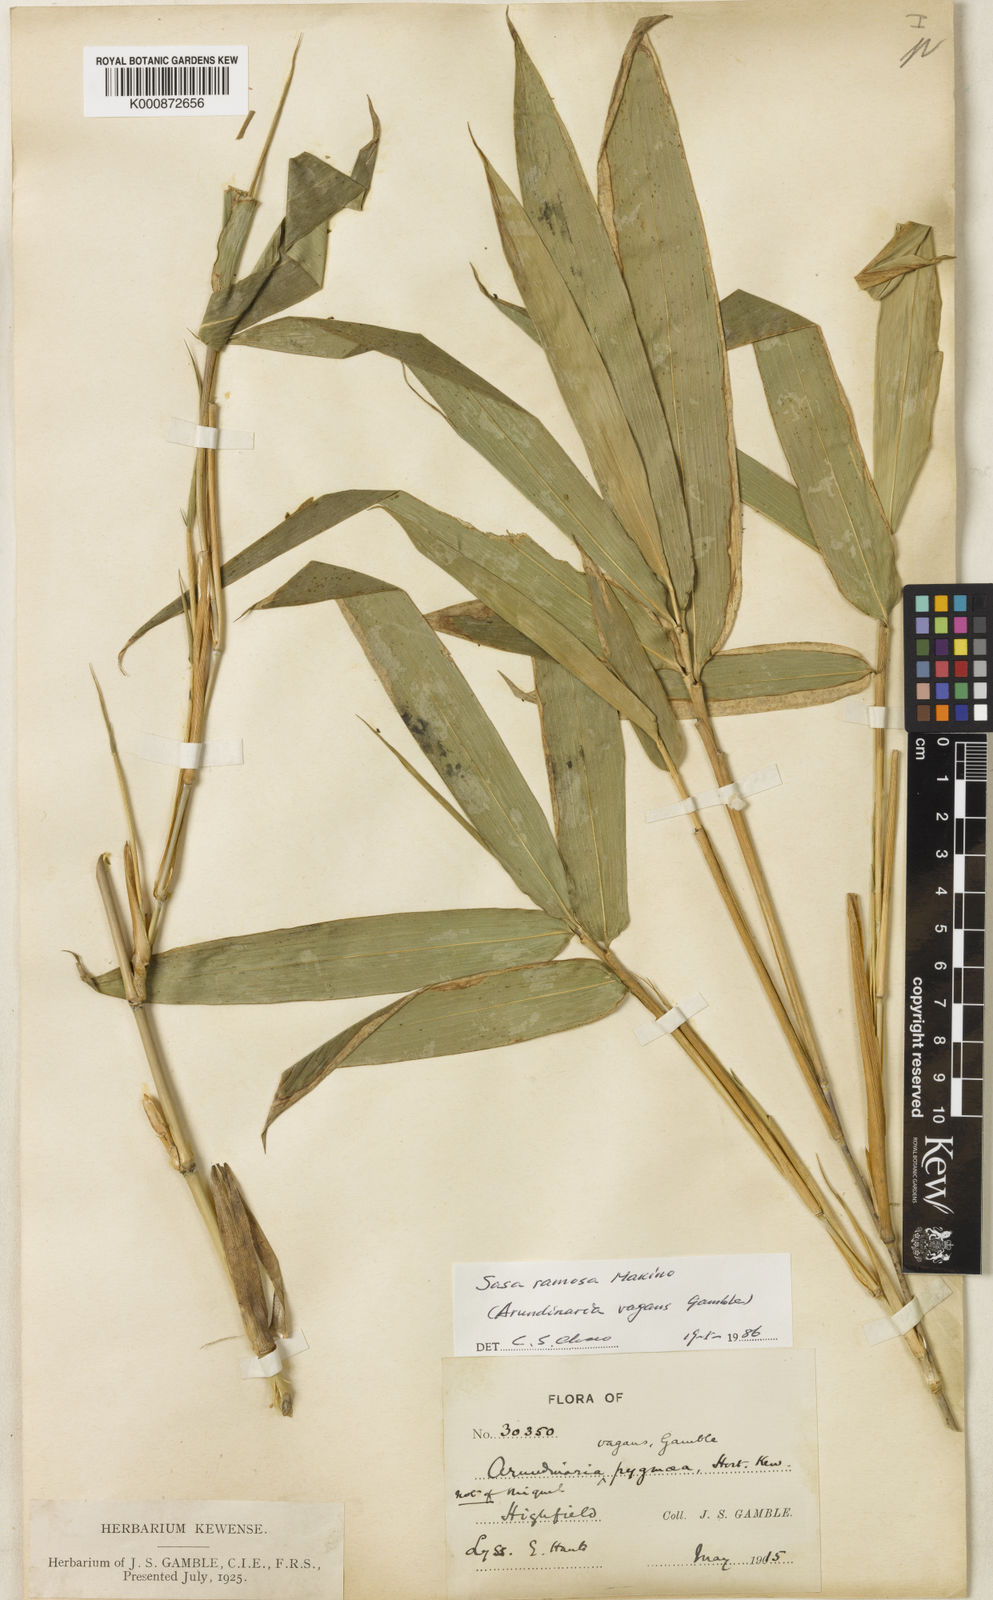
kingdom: Plantae
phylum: Tracheophyta
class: Liliopsida
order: Poales
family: Poaceae
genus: Sasa
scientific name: Sasa
